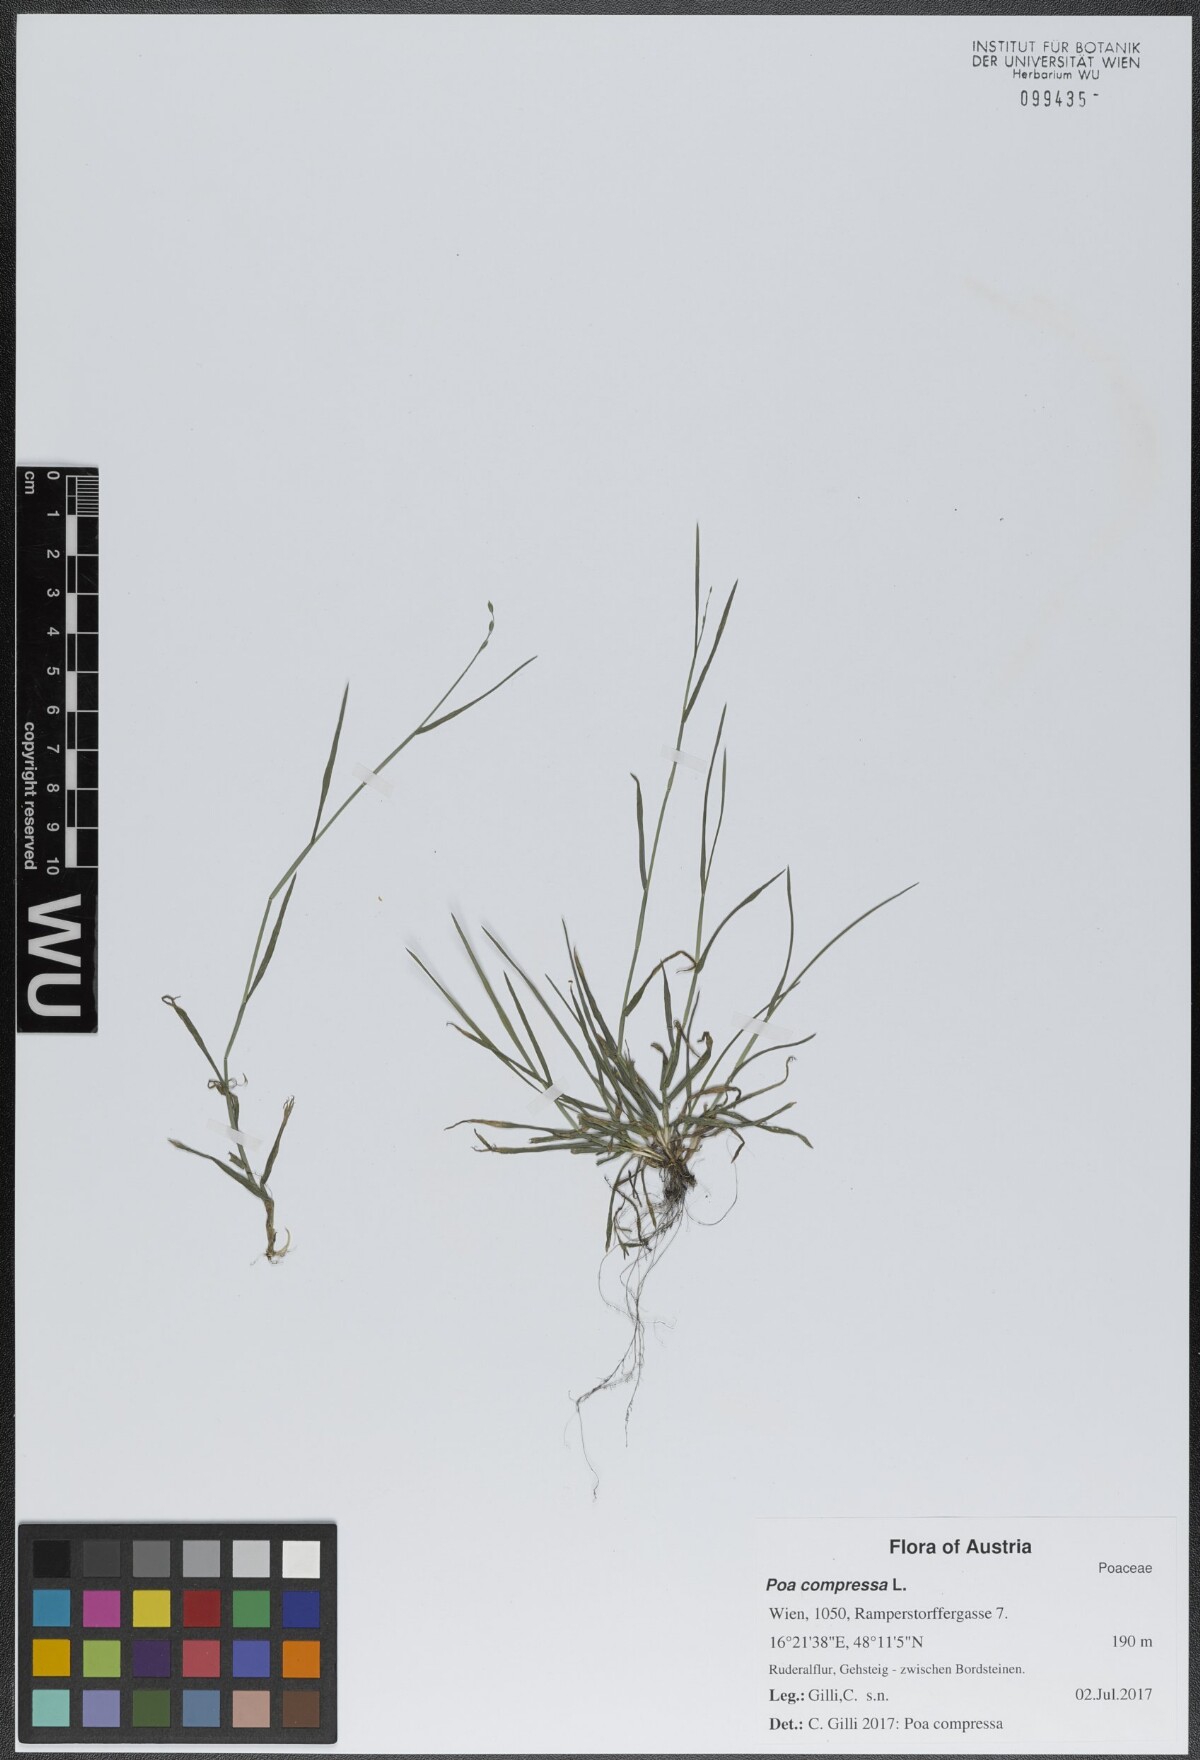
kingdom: Plantae
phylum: Tracheophyta
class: Liliopsida
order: Poales
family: Poaceae
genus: Poa
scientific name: Poa compressa
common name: Canada bluegrass
